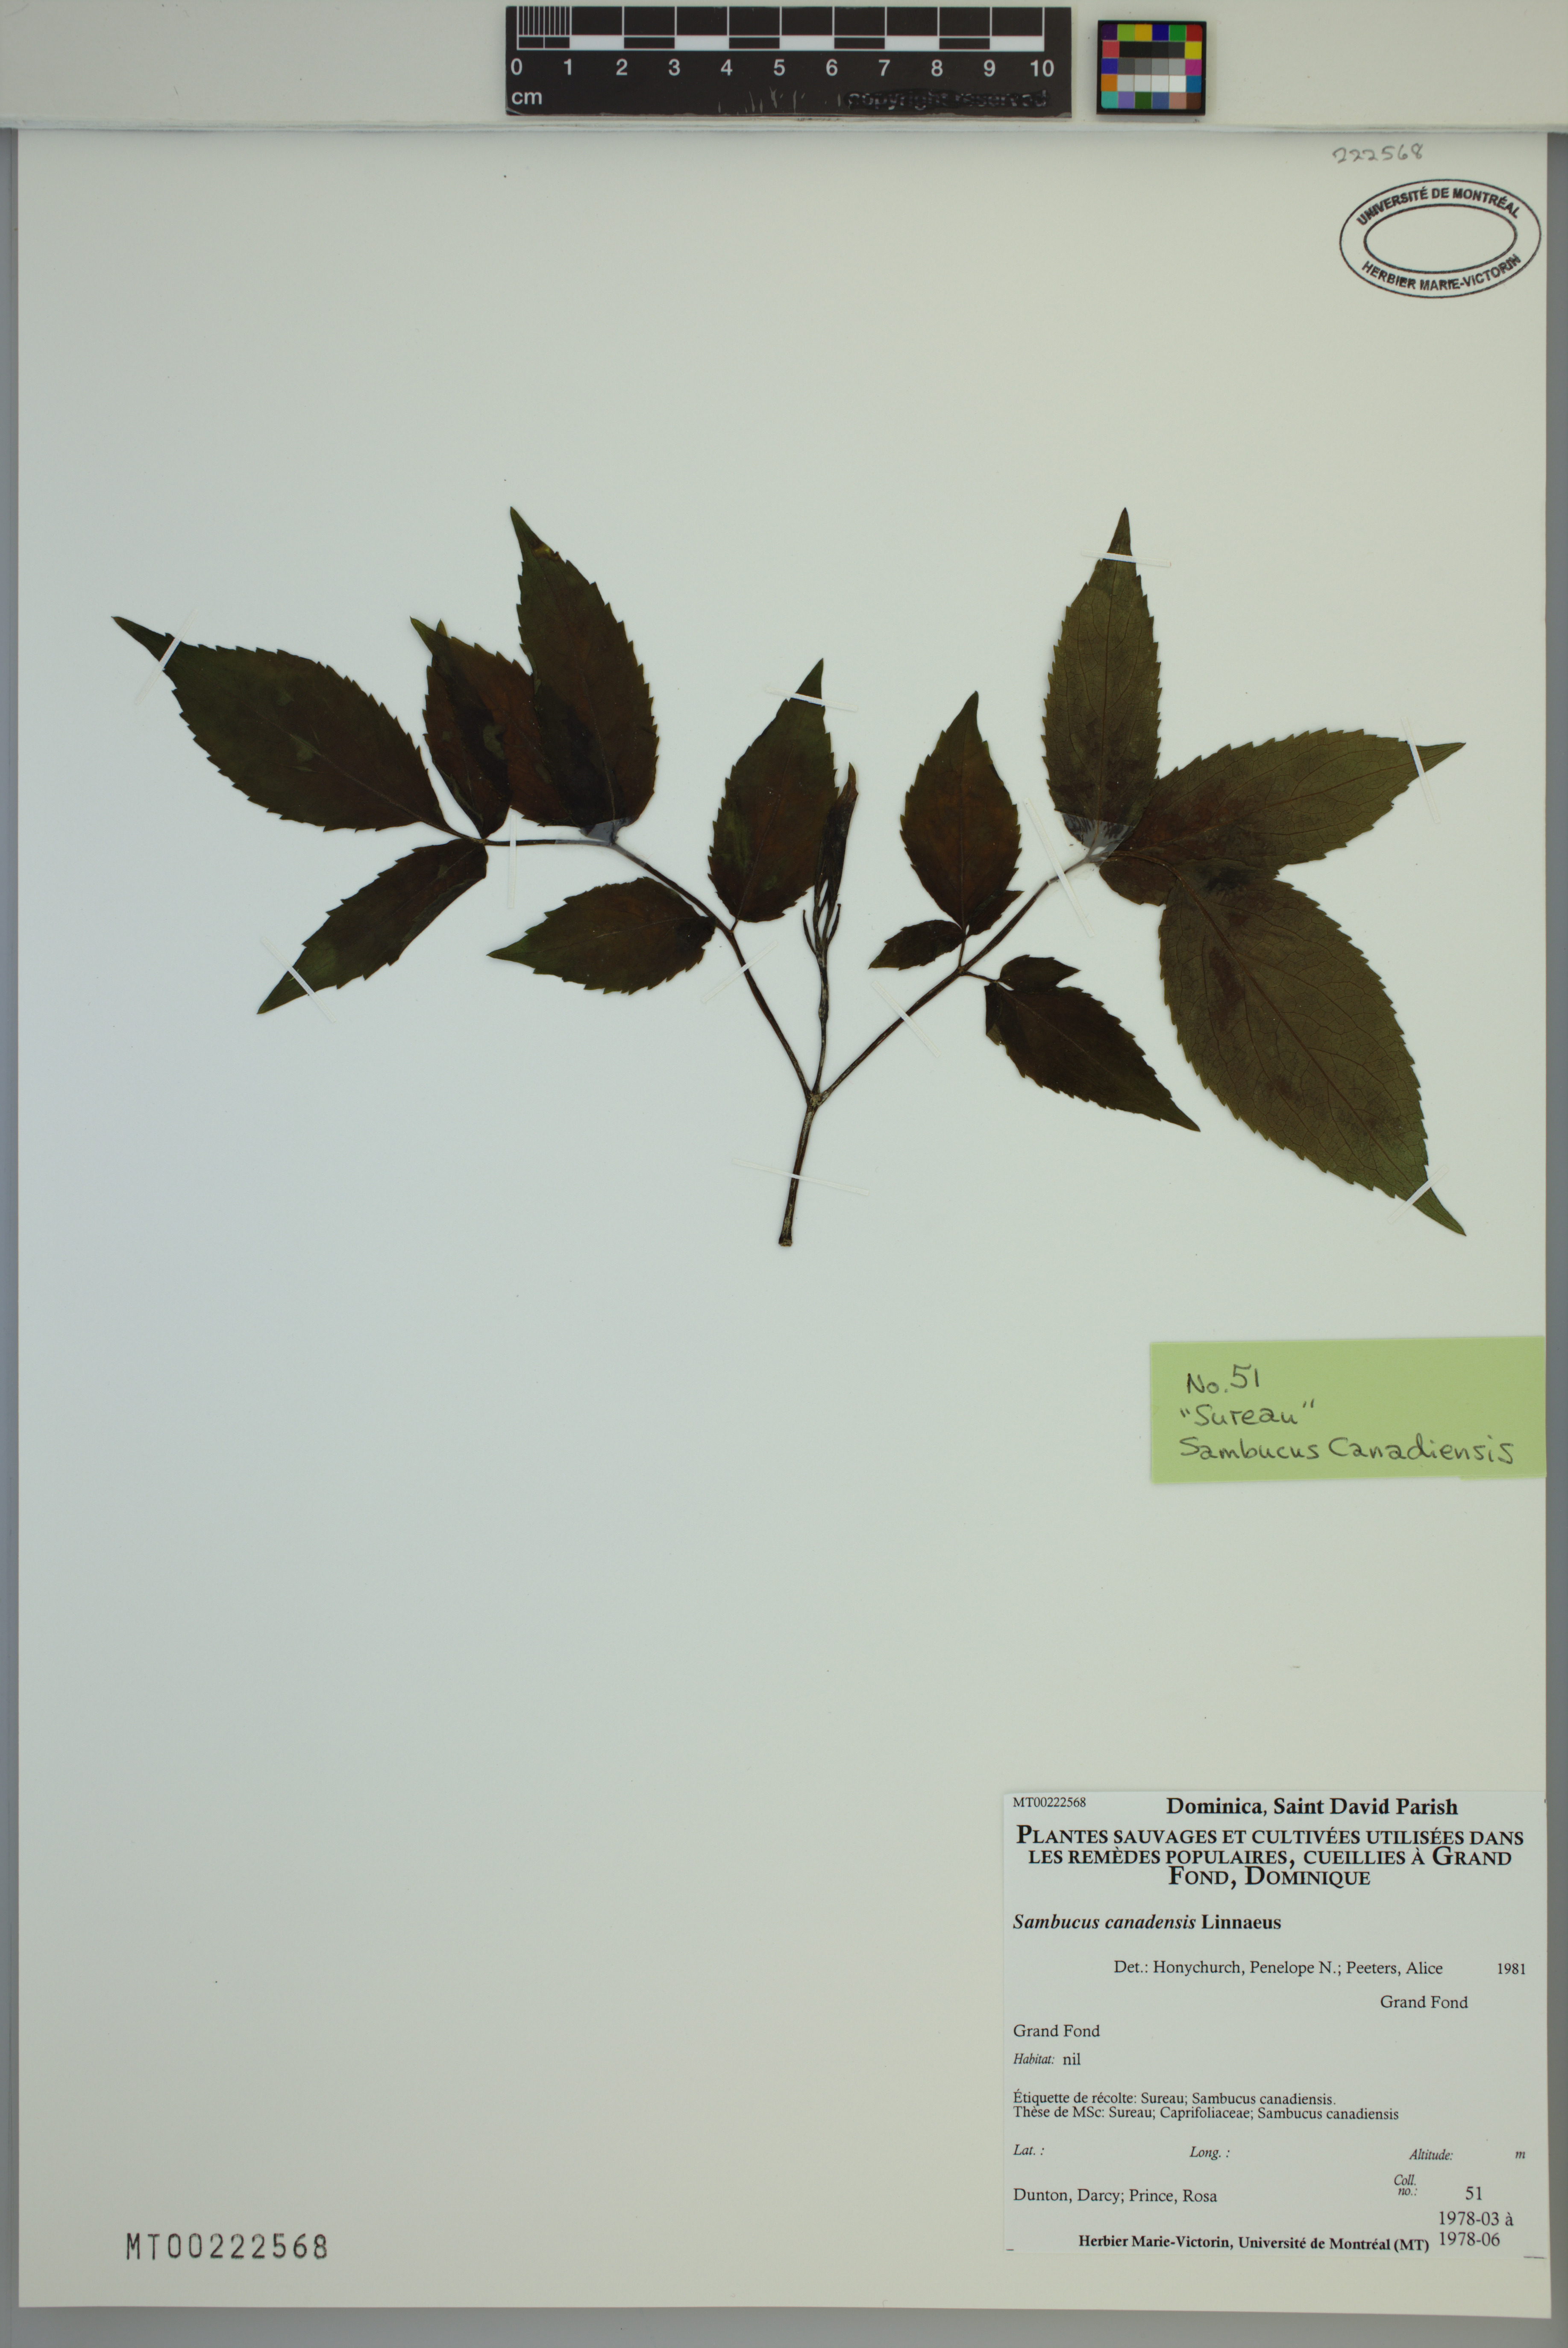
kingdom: Plantae
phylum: Tracheophyta
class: Magnoliopsida
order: Dipsacales
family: Viburnaceae
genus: Sambucus
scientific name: Sambucus canadensis
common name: American elder
